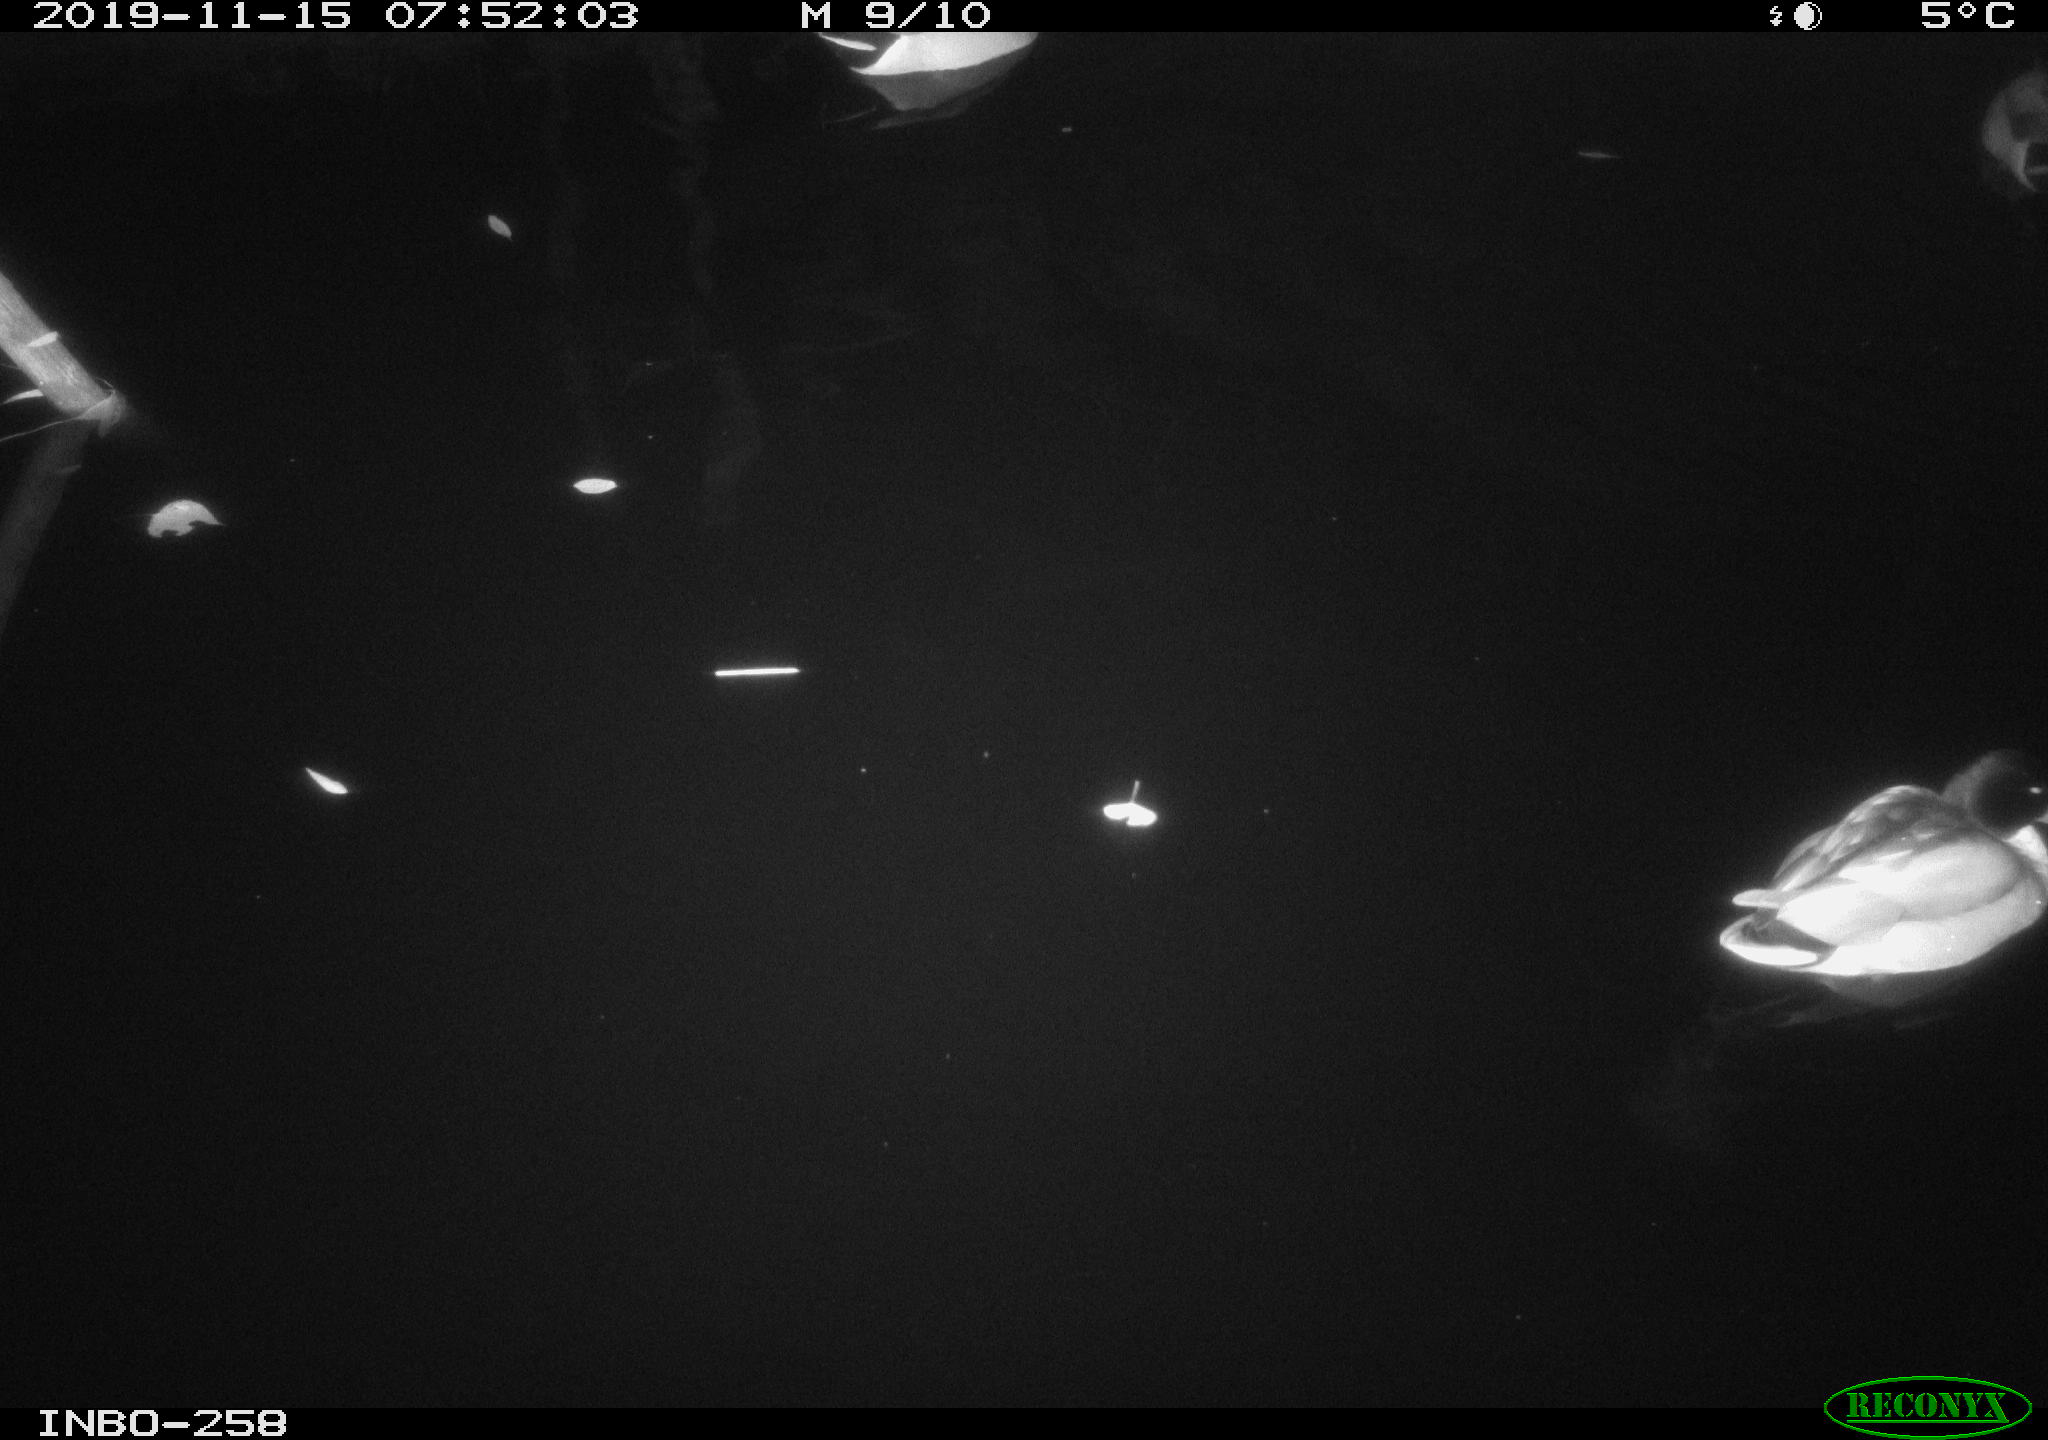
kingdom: Animalia
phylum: Chordata
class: Aves
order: Anseriformes
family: Anatidae
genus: Anas
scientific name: Anas platyrhynchos
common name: Mallard
